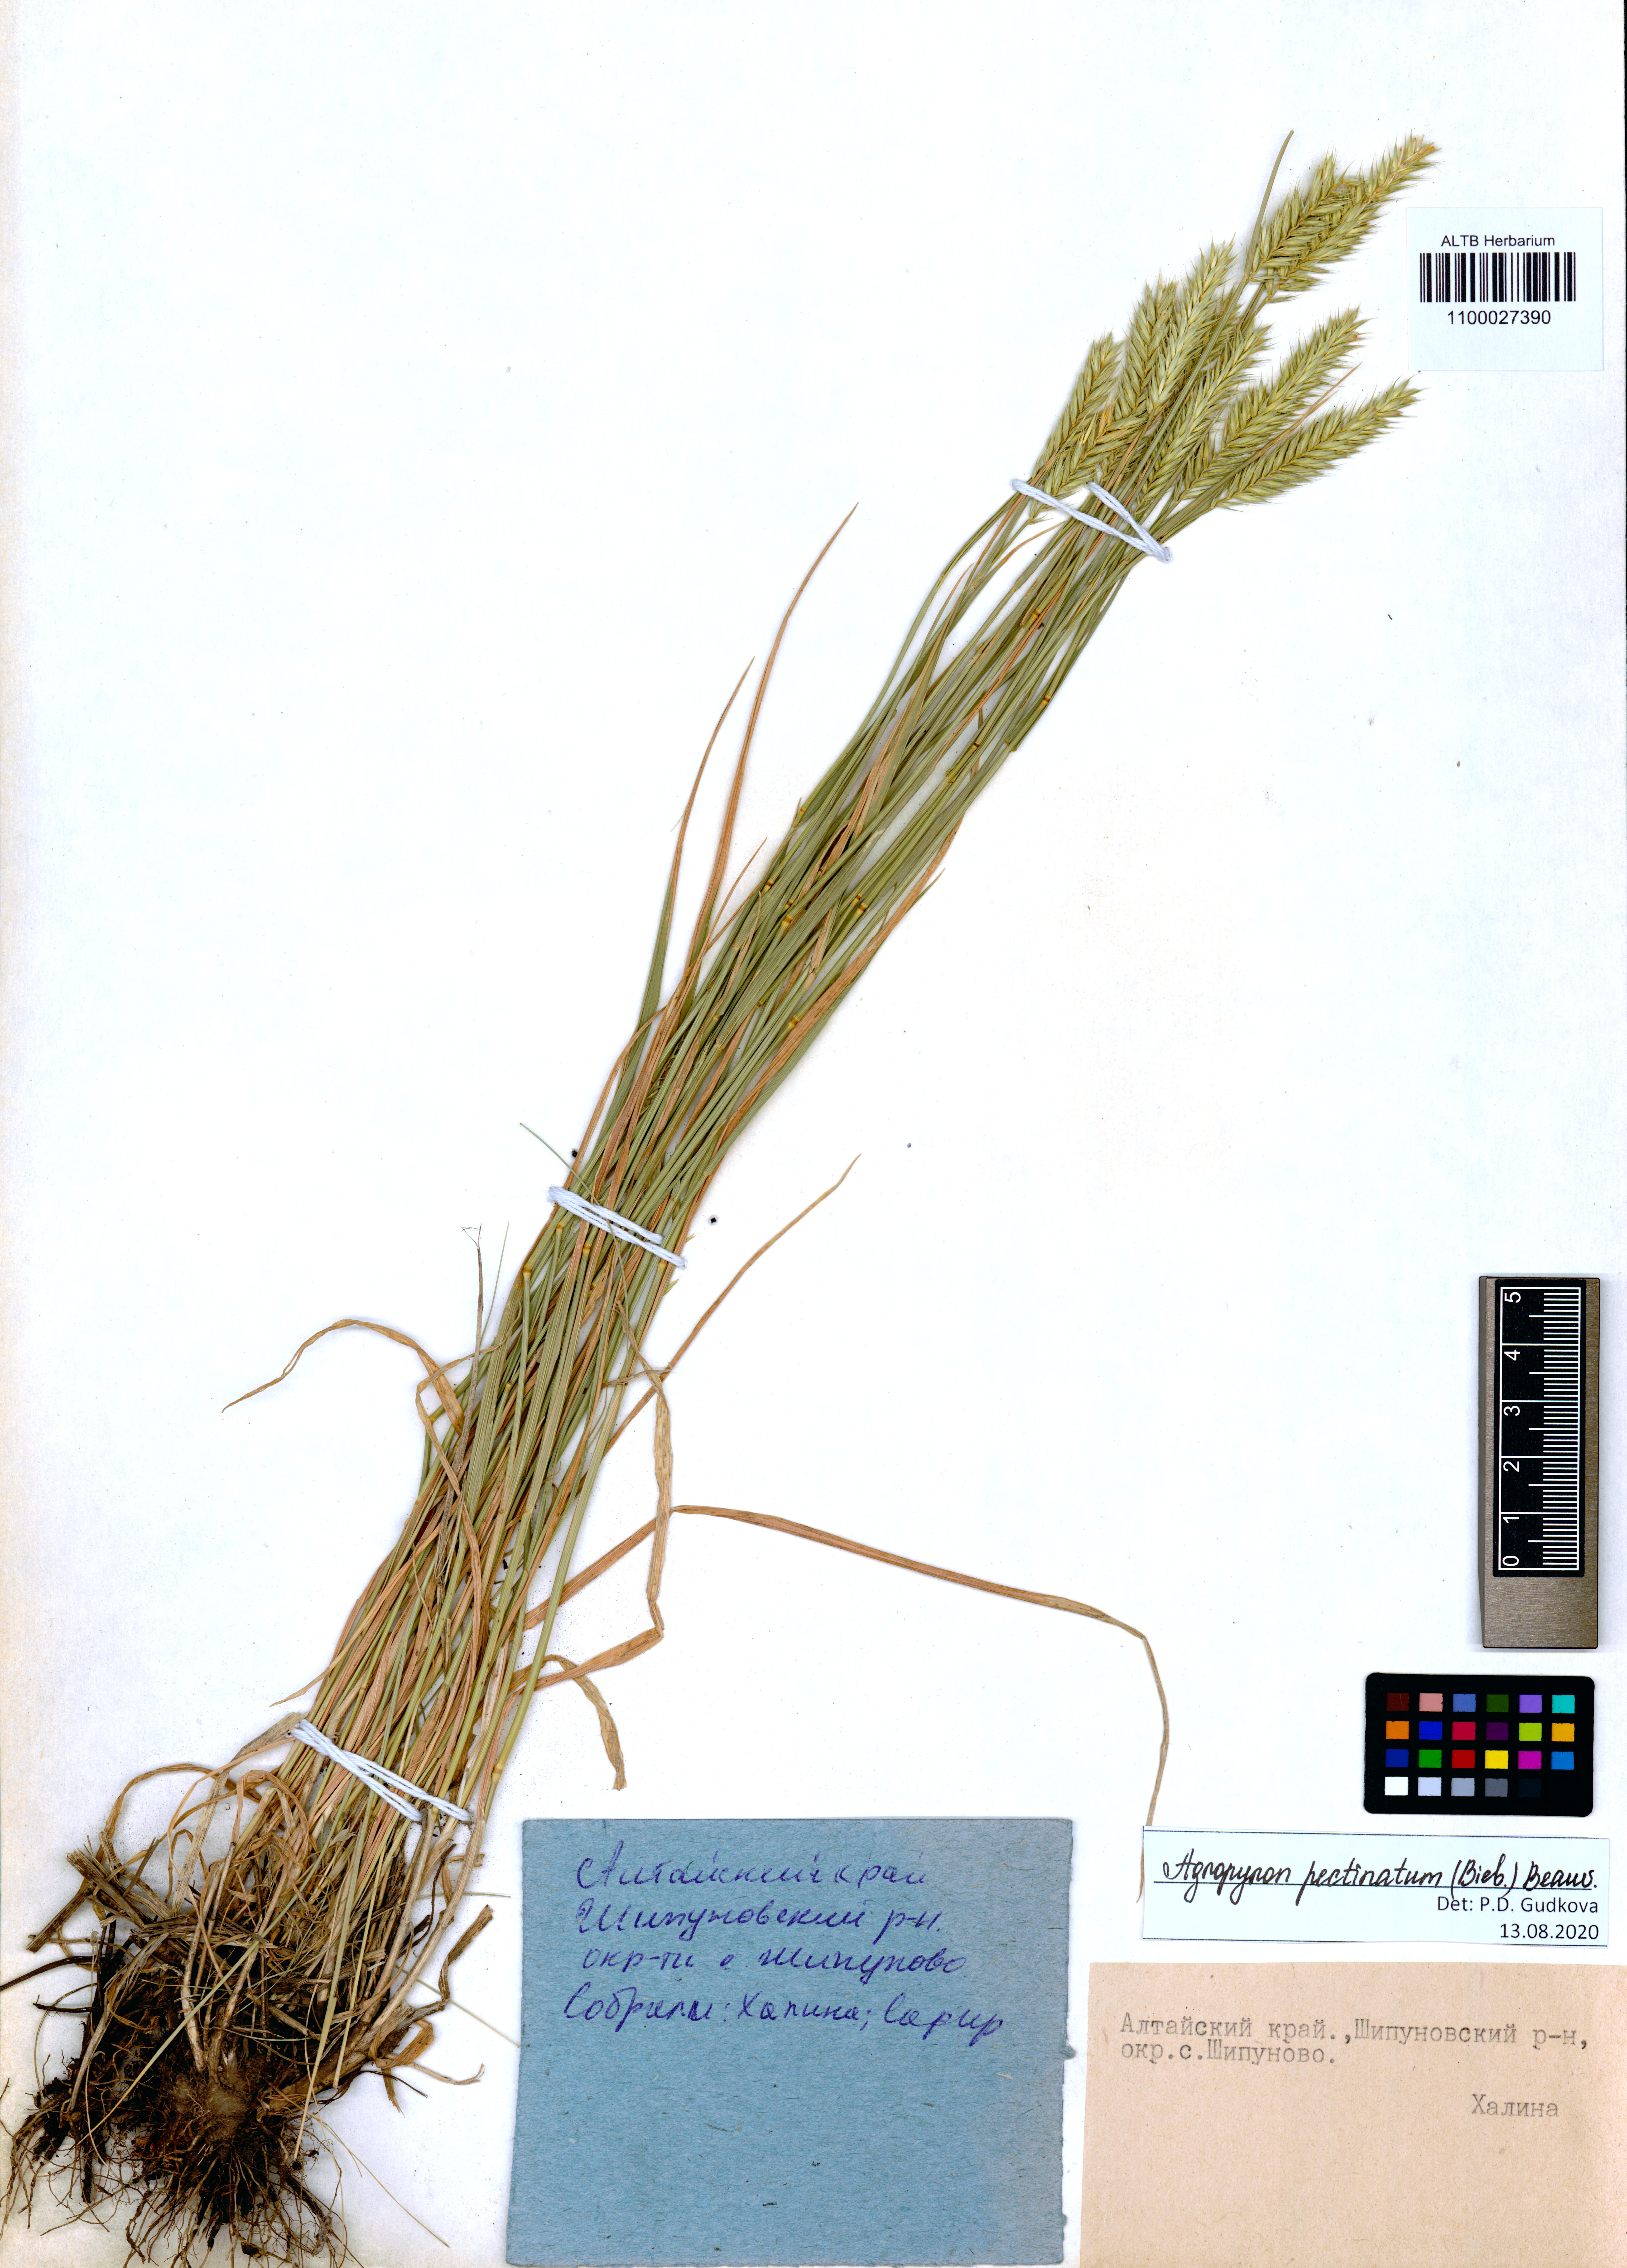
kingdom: Plantae
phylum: Tracheophyta
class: Liliopsida
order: Poales
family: Poaceae
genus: Agropyron
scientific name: Agropyron cristatum
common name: Crested wheatgrass
